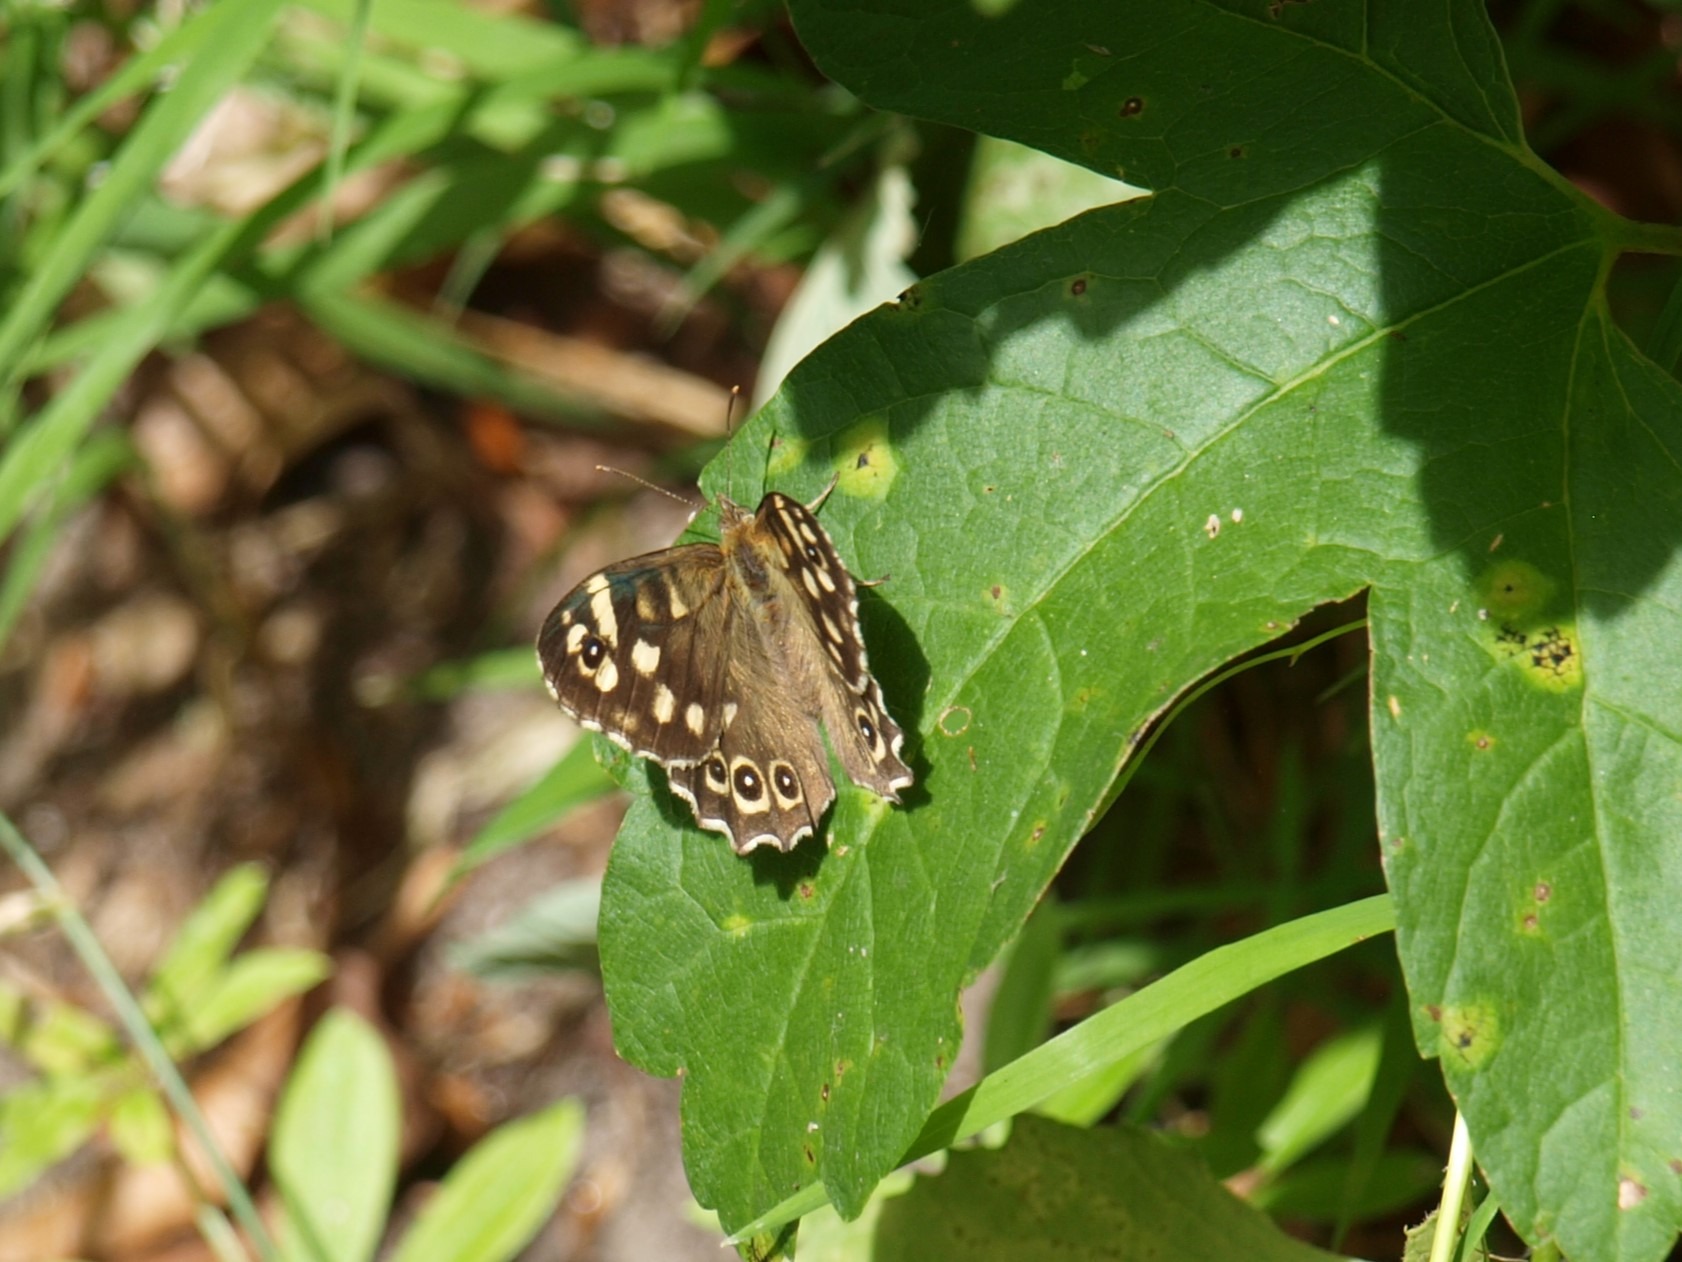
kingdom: Animalia
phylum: Arthropoda
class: Insecta
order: Lepidoptera
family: Nymphalidae
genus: Pararge
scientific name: Pararge aegeria
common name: Skovrandøje
